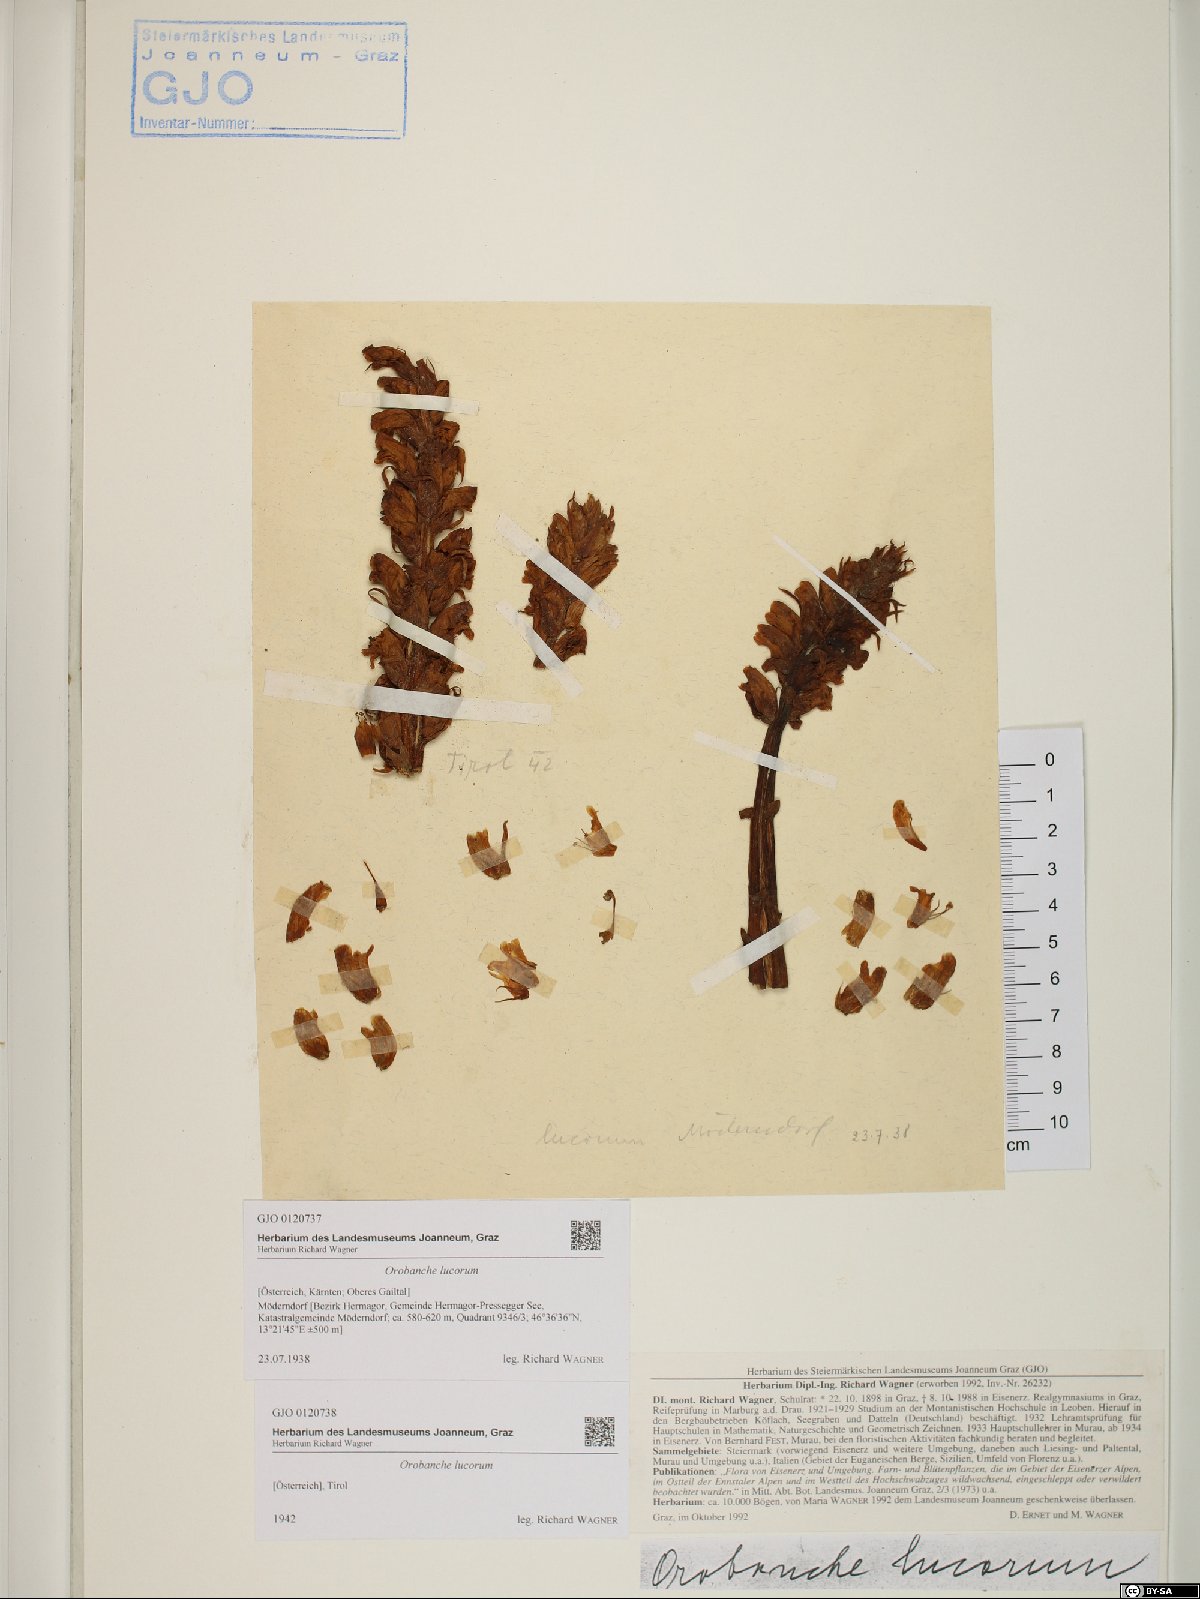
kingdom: Plantae
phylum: Tracheophyta
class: Magnoliopsida
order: Lamiales
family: Orobanchaceae
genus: Orobanche
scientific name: Orobanche lucorum
